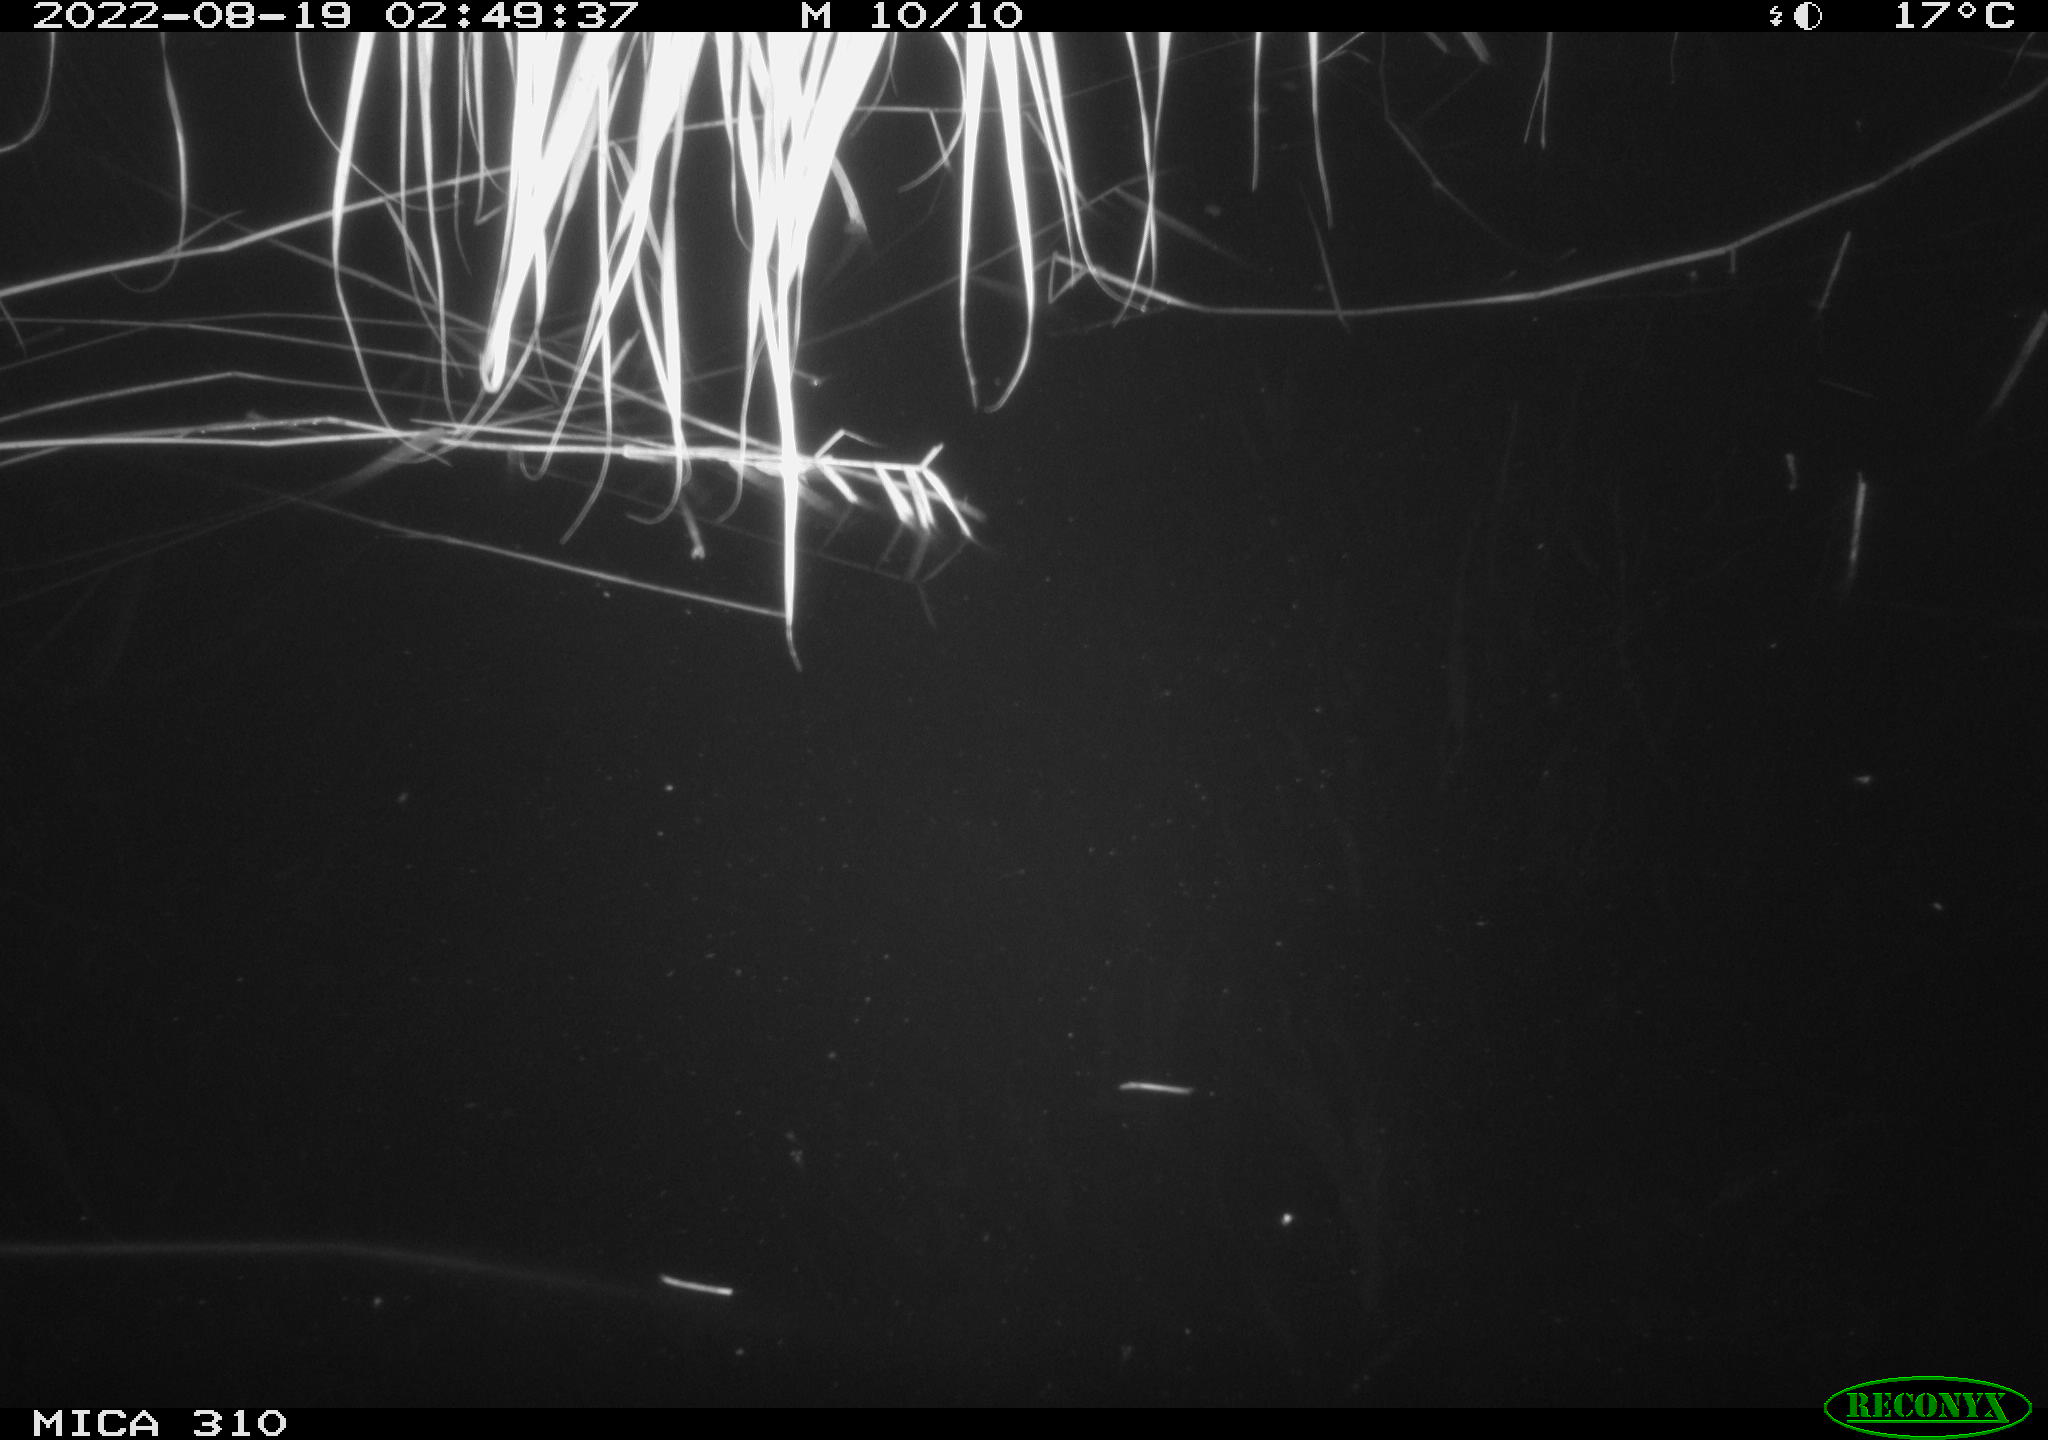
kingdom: Animalia
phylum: Chordata
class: Aves
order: Anseriformes
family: Anatidae
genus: Anas
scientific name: Anas platyrhynchos
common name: Mallard
